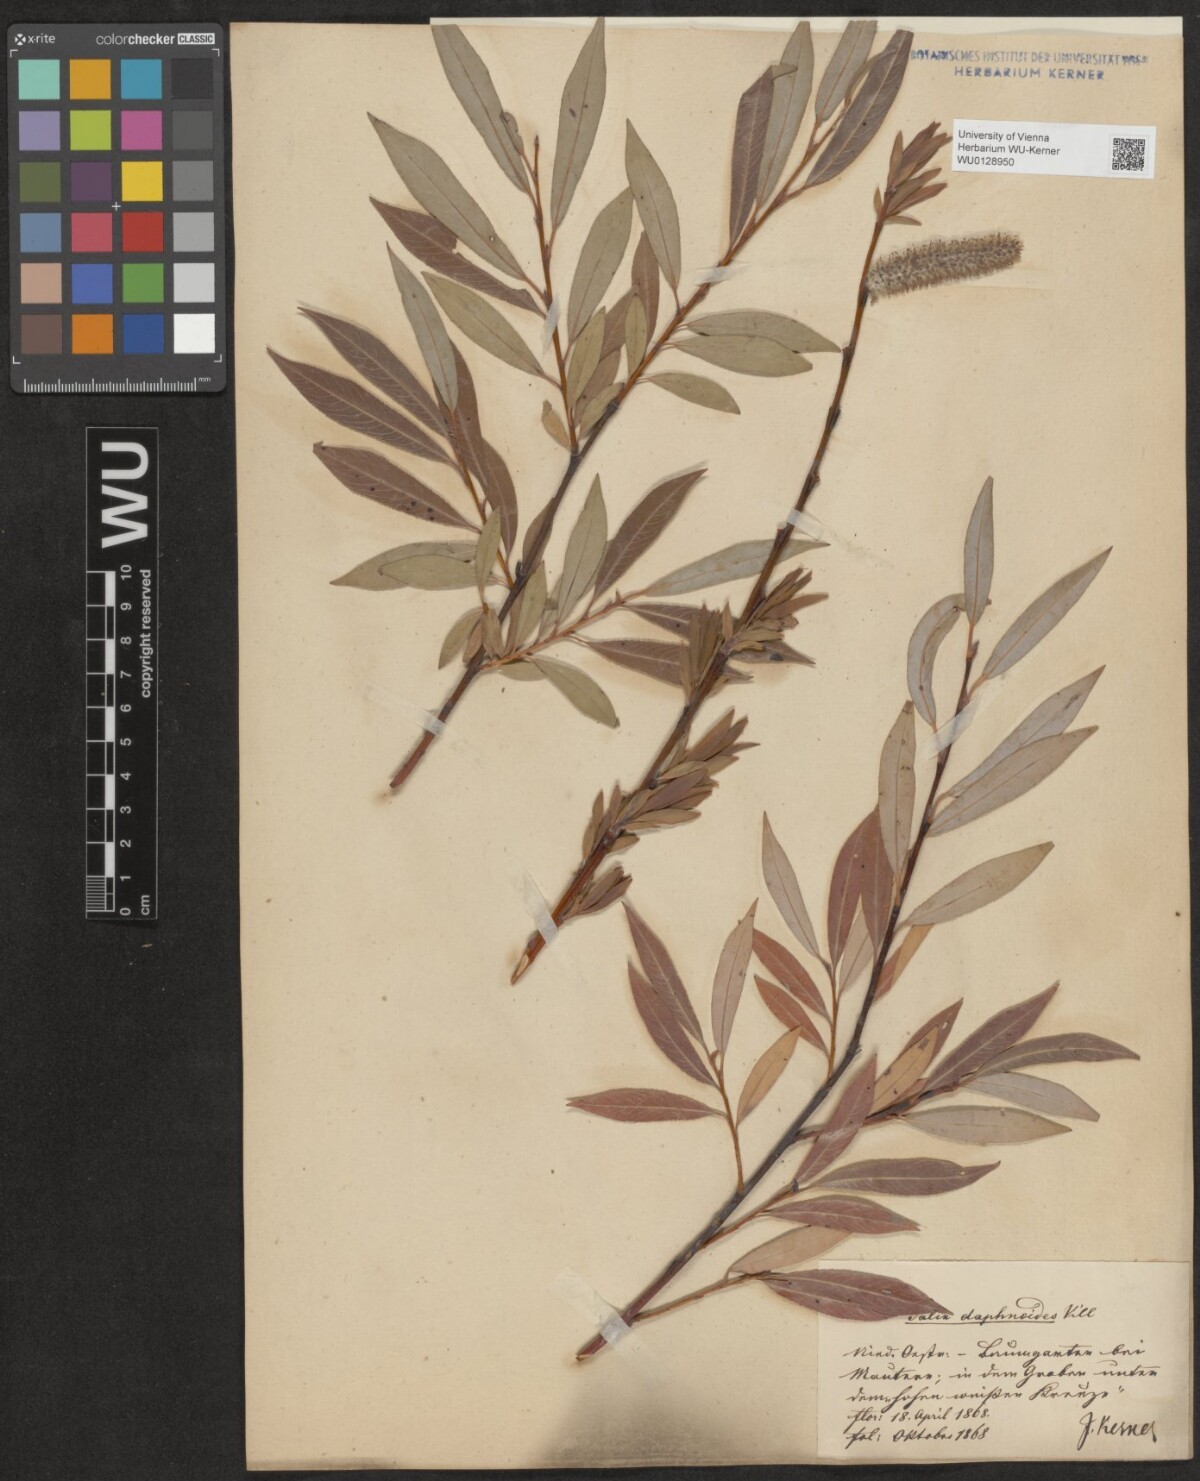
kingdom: Plantae
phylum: Tracheophyta
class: Magnoliopsida
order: Malpighiales
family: Salicaceae
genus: Salix
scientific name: Salix daphnoides
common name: European violet-willow
